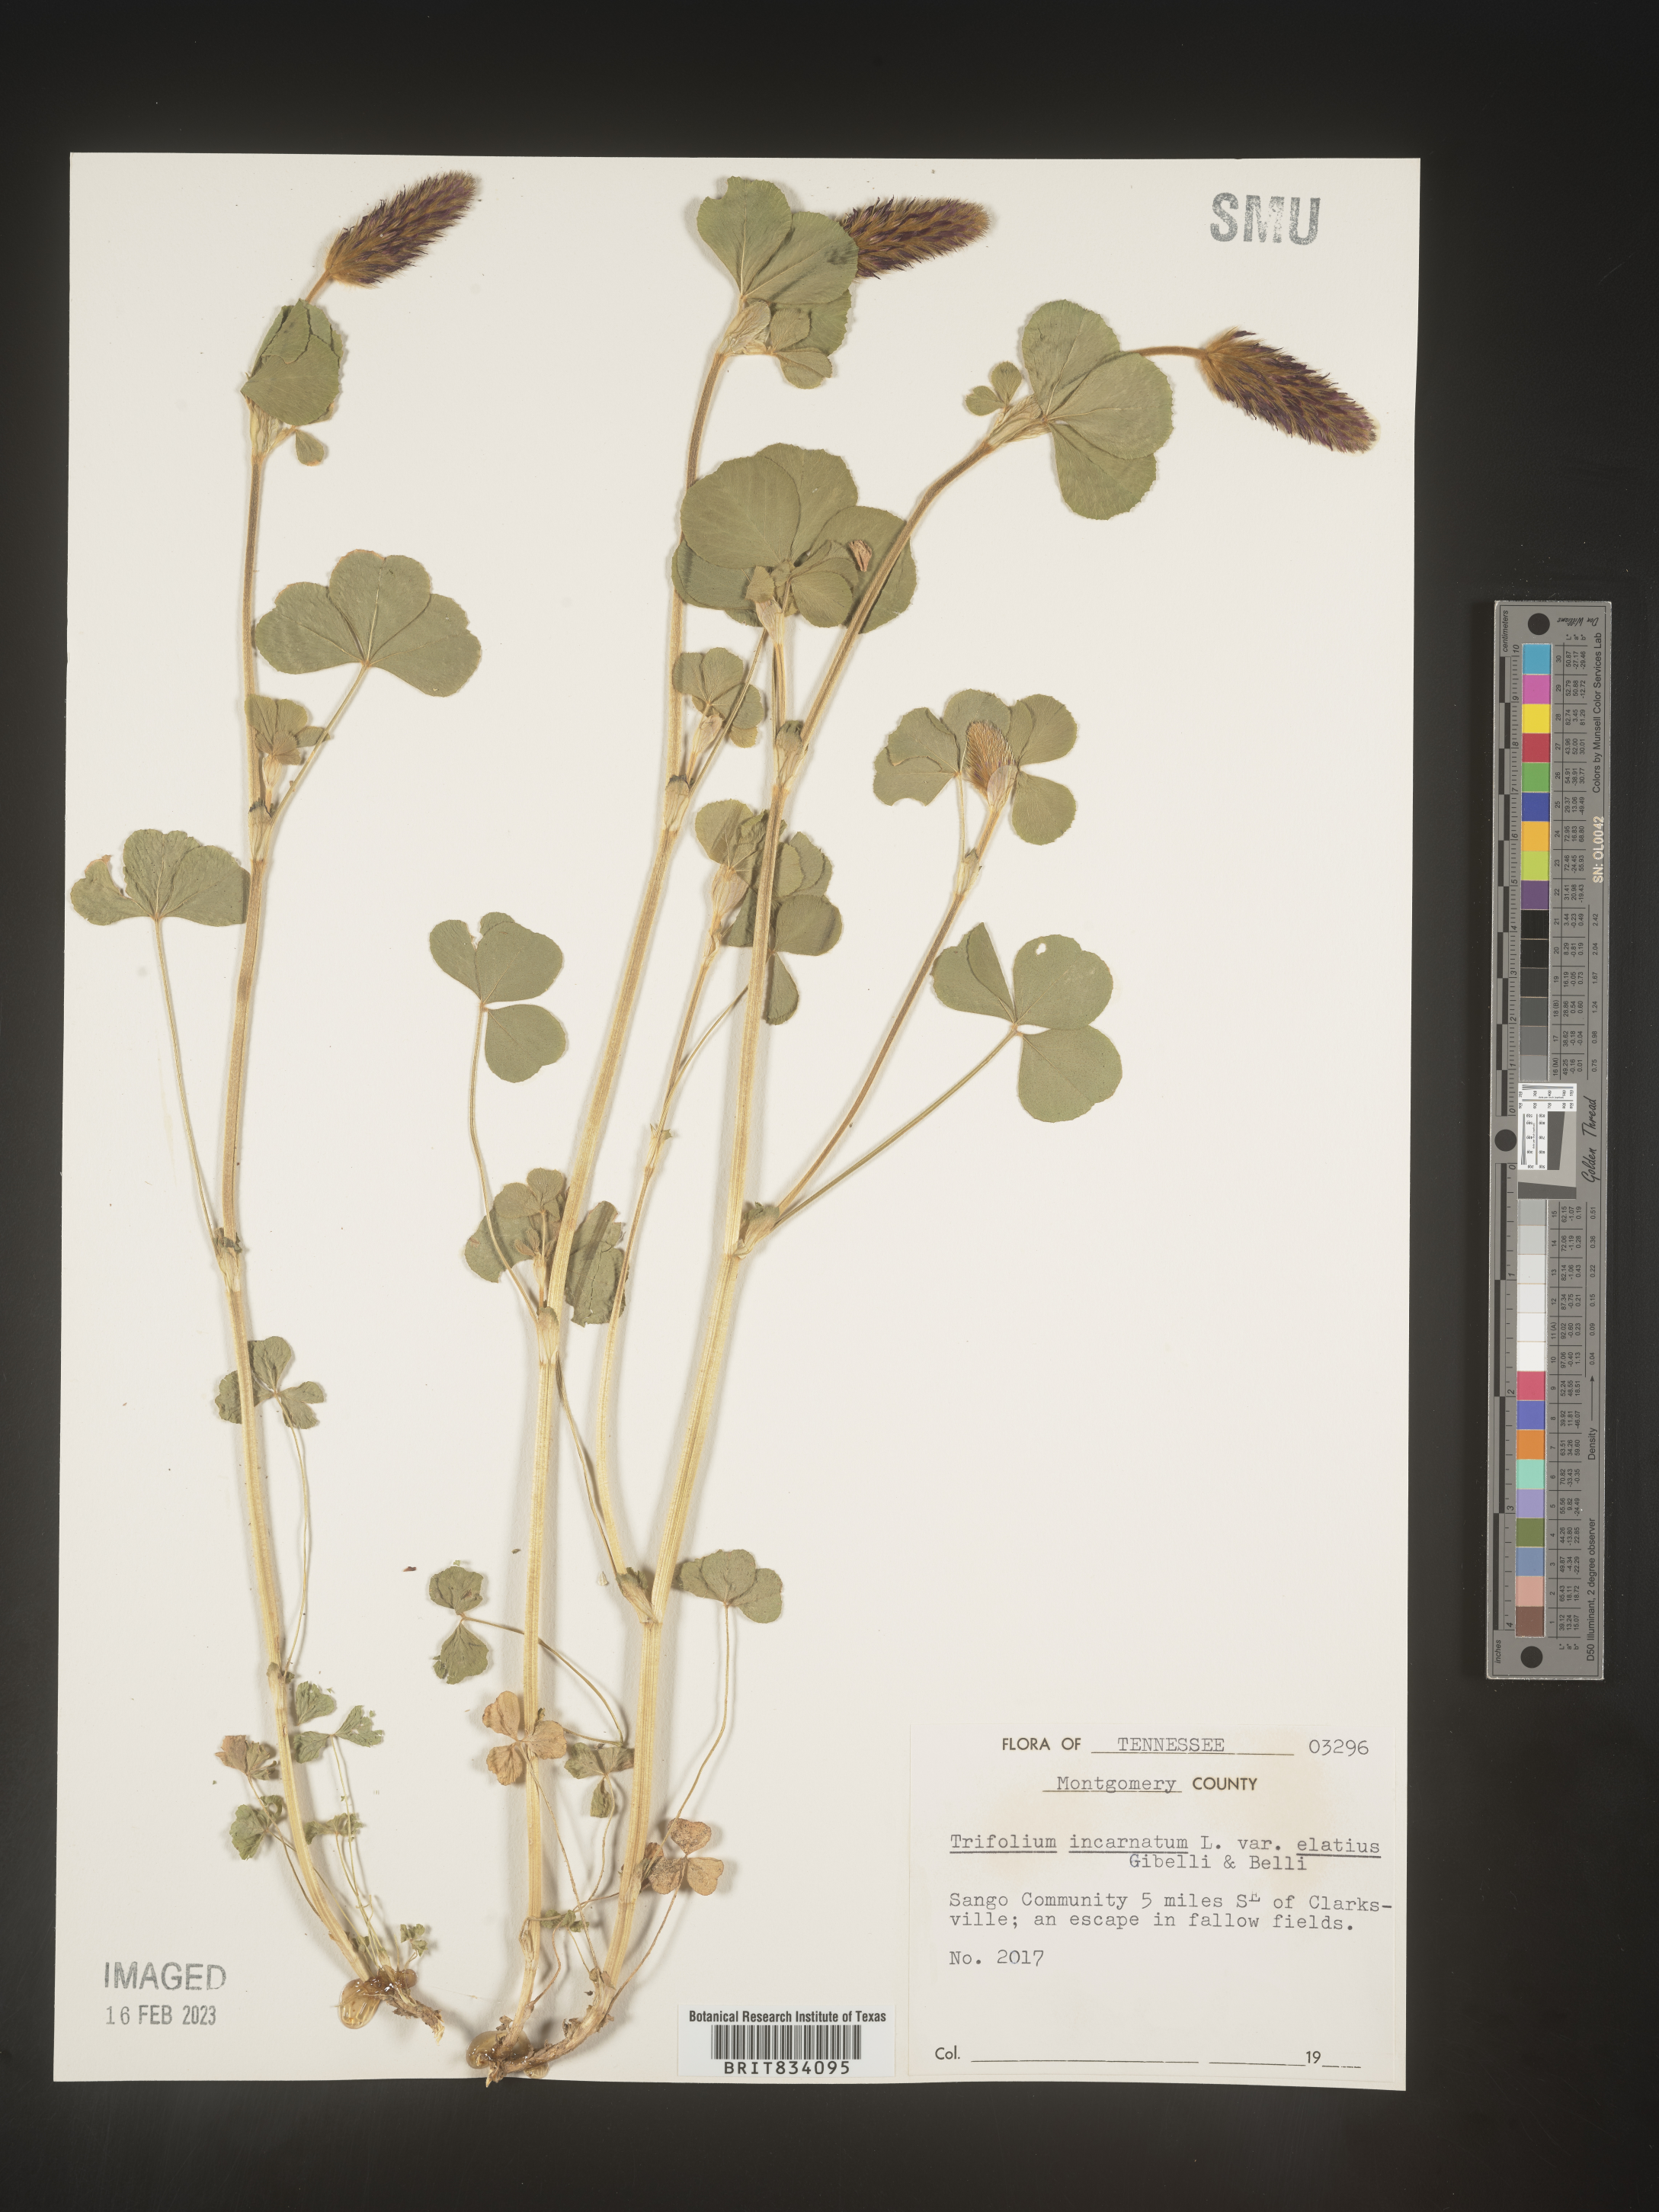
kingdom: Plantae
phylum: Tracheophyta
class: Magnoliopsida
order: Fabales
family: Fabaceae
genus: Trifolium
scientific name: Trifolium incarnatum
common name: Crimson clover
